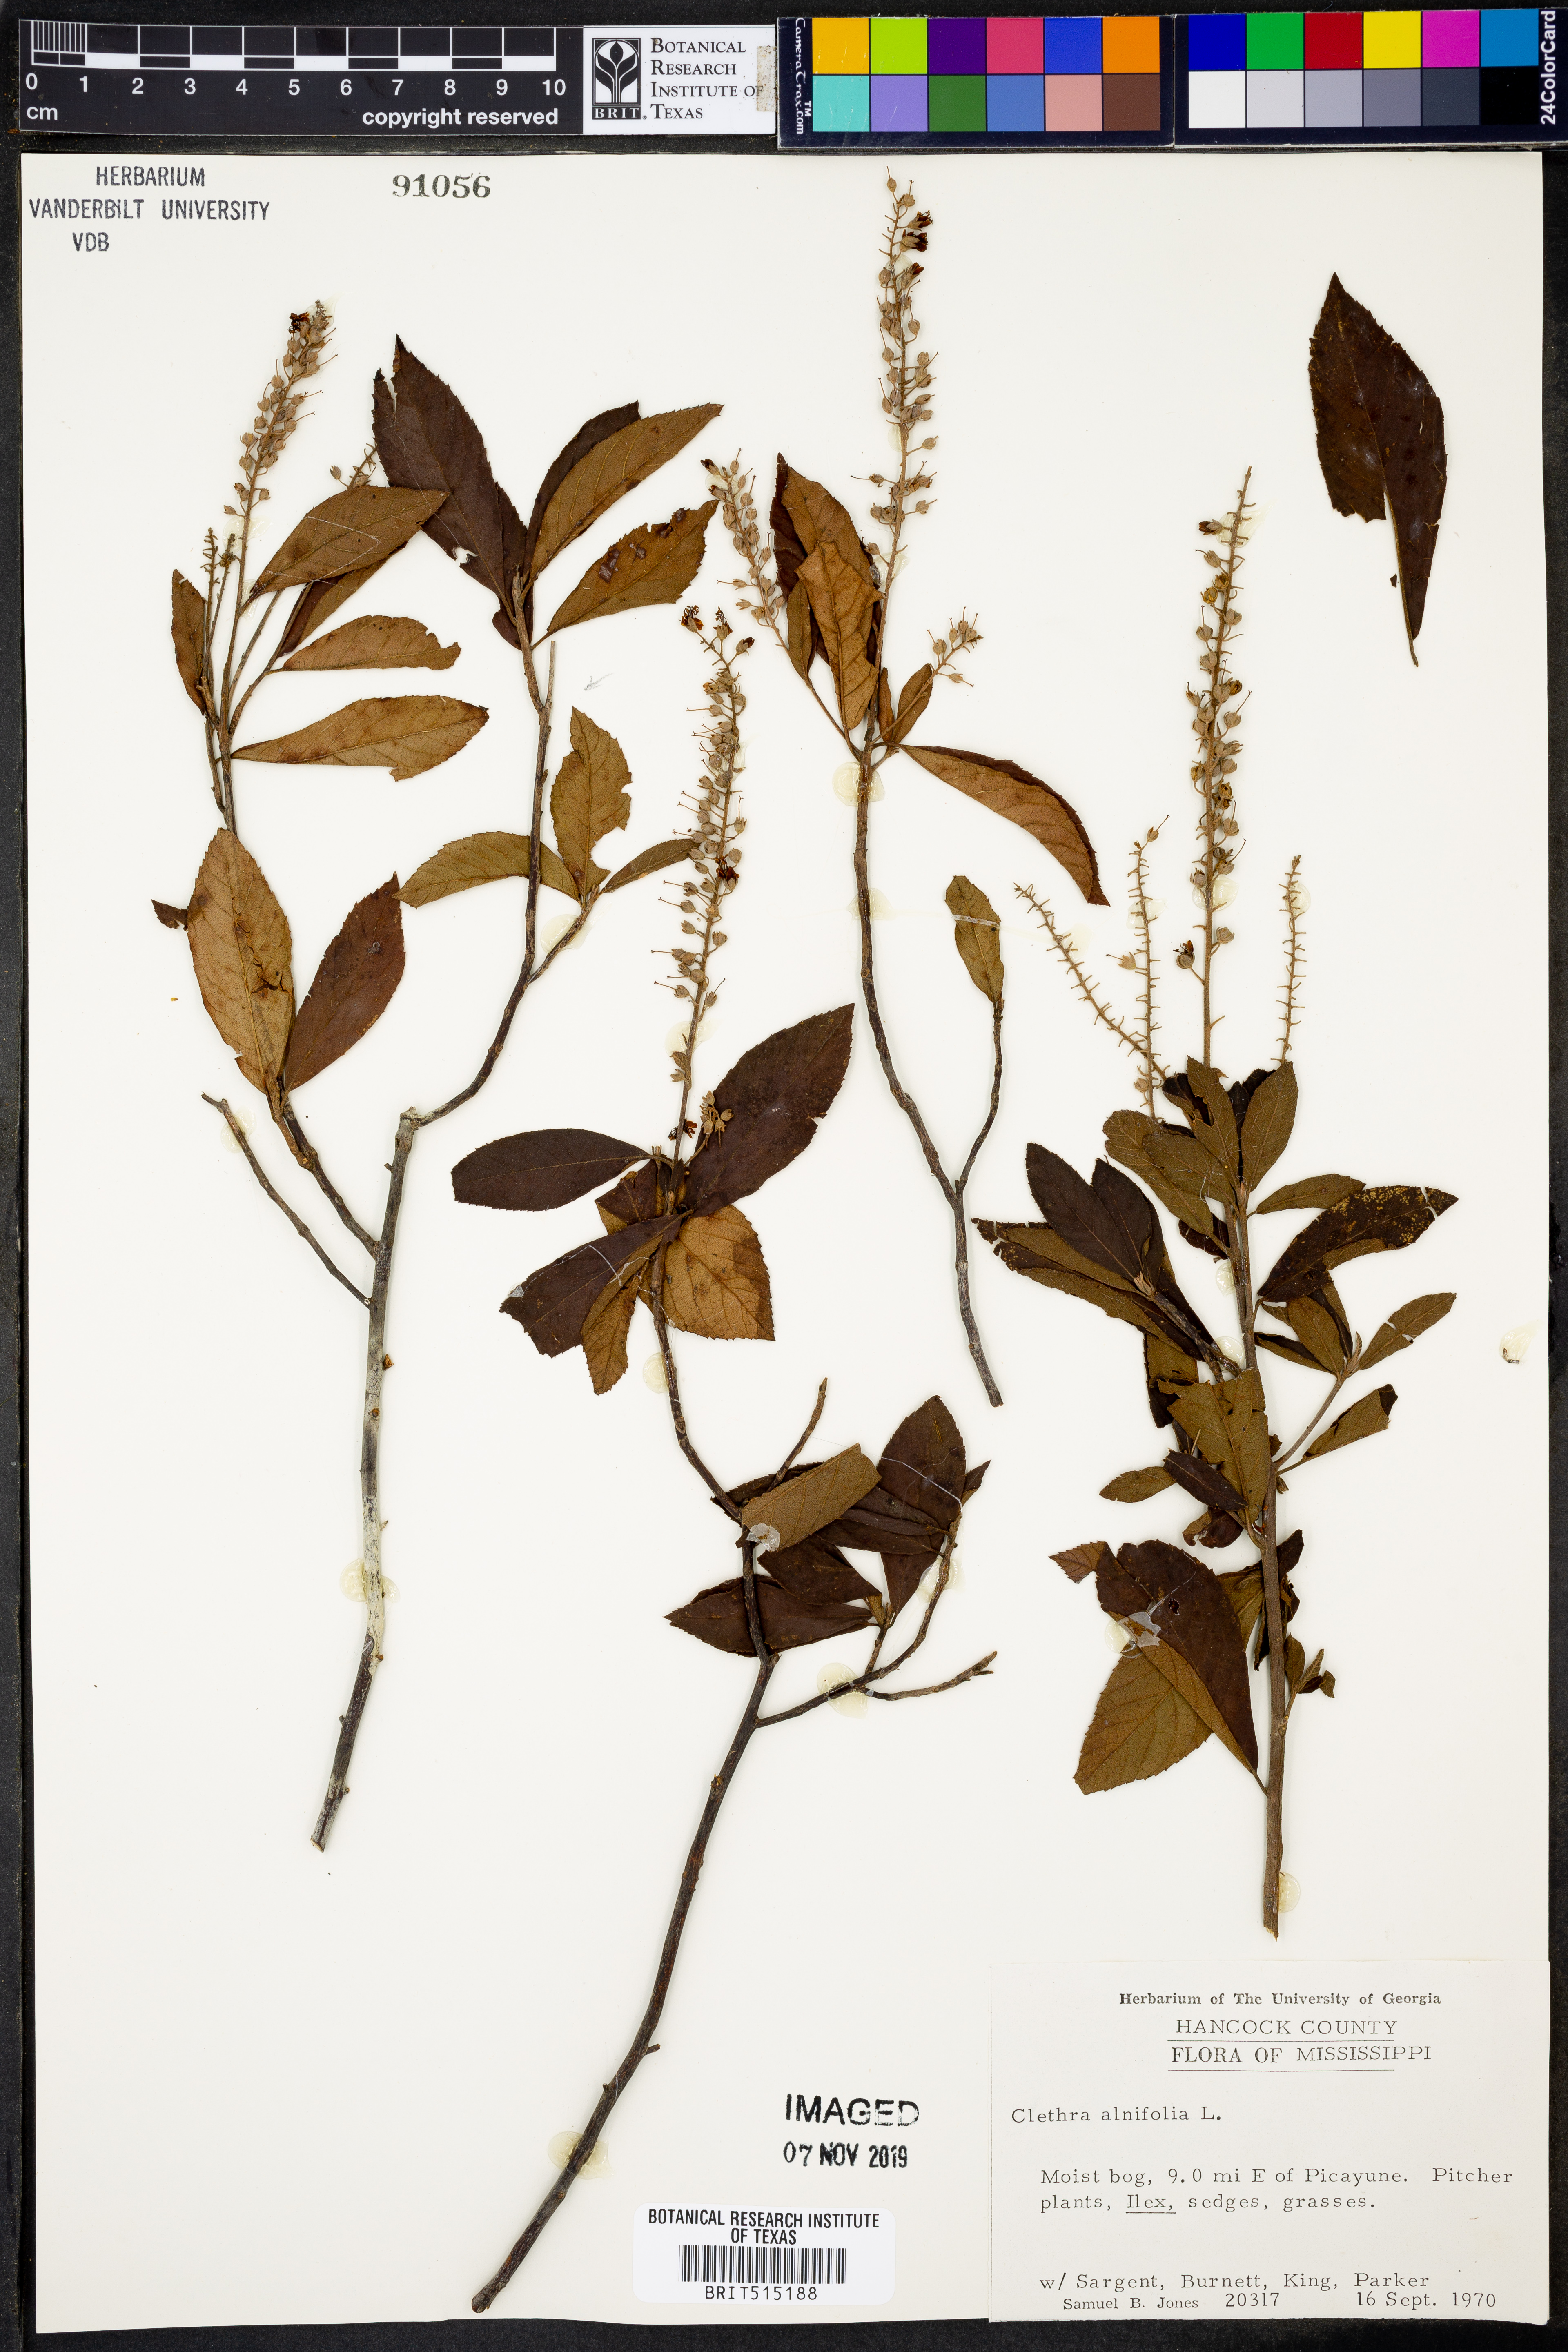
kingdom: Plantae
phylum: Tracheophyta
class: Magnoliopsida
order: Ericales
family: Clethraceae
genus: Clethra
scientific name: Clethra alnifolia
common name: Sweet pepperbush
